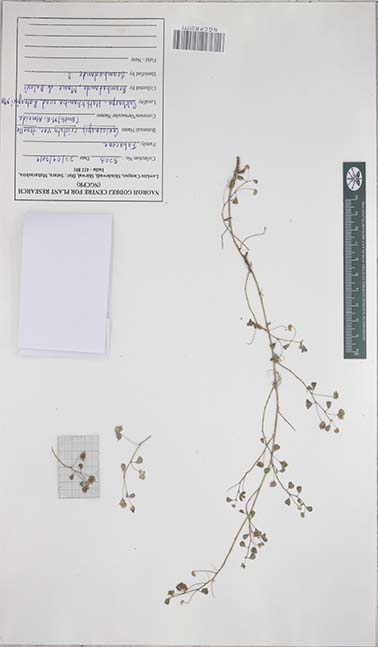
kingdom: Plantae
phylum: Tracheophyta
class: Magnoliopsida
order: Fabales
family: Fabaceae
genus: Geissaspis
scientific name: Geissaspis cristata
